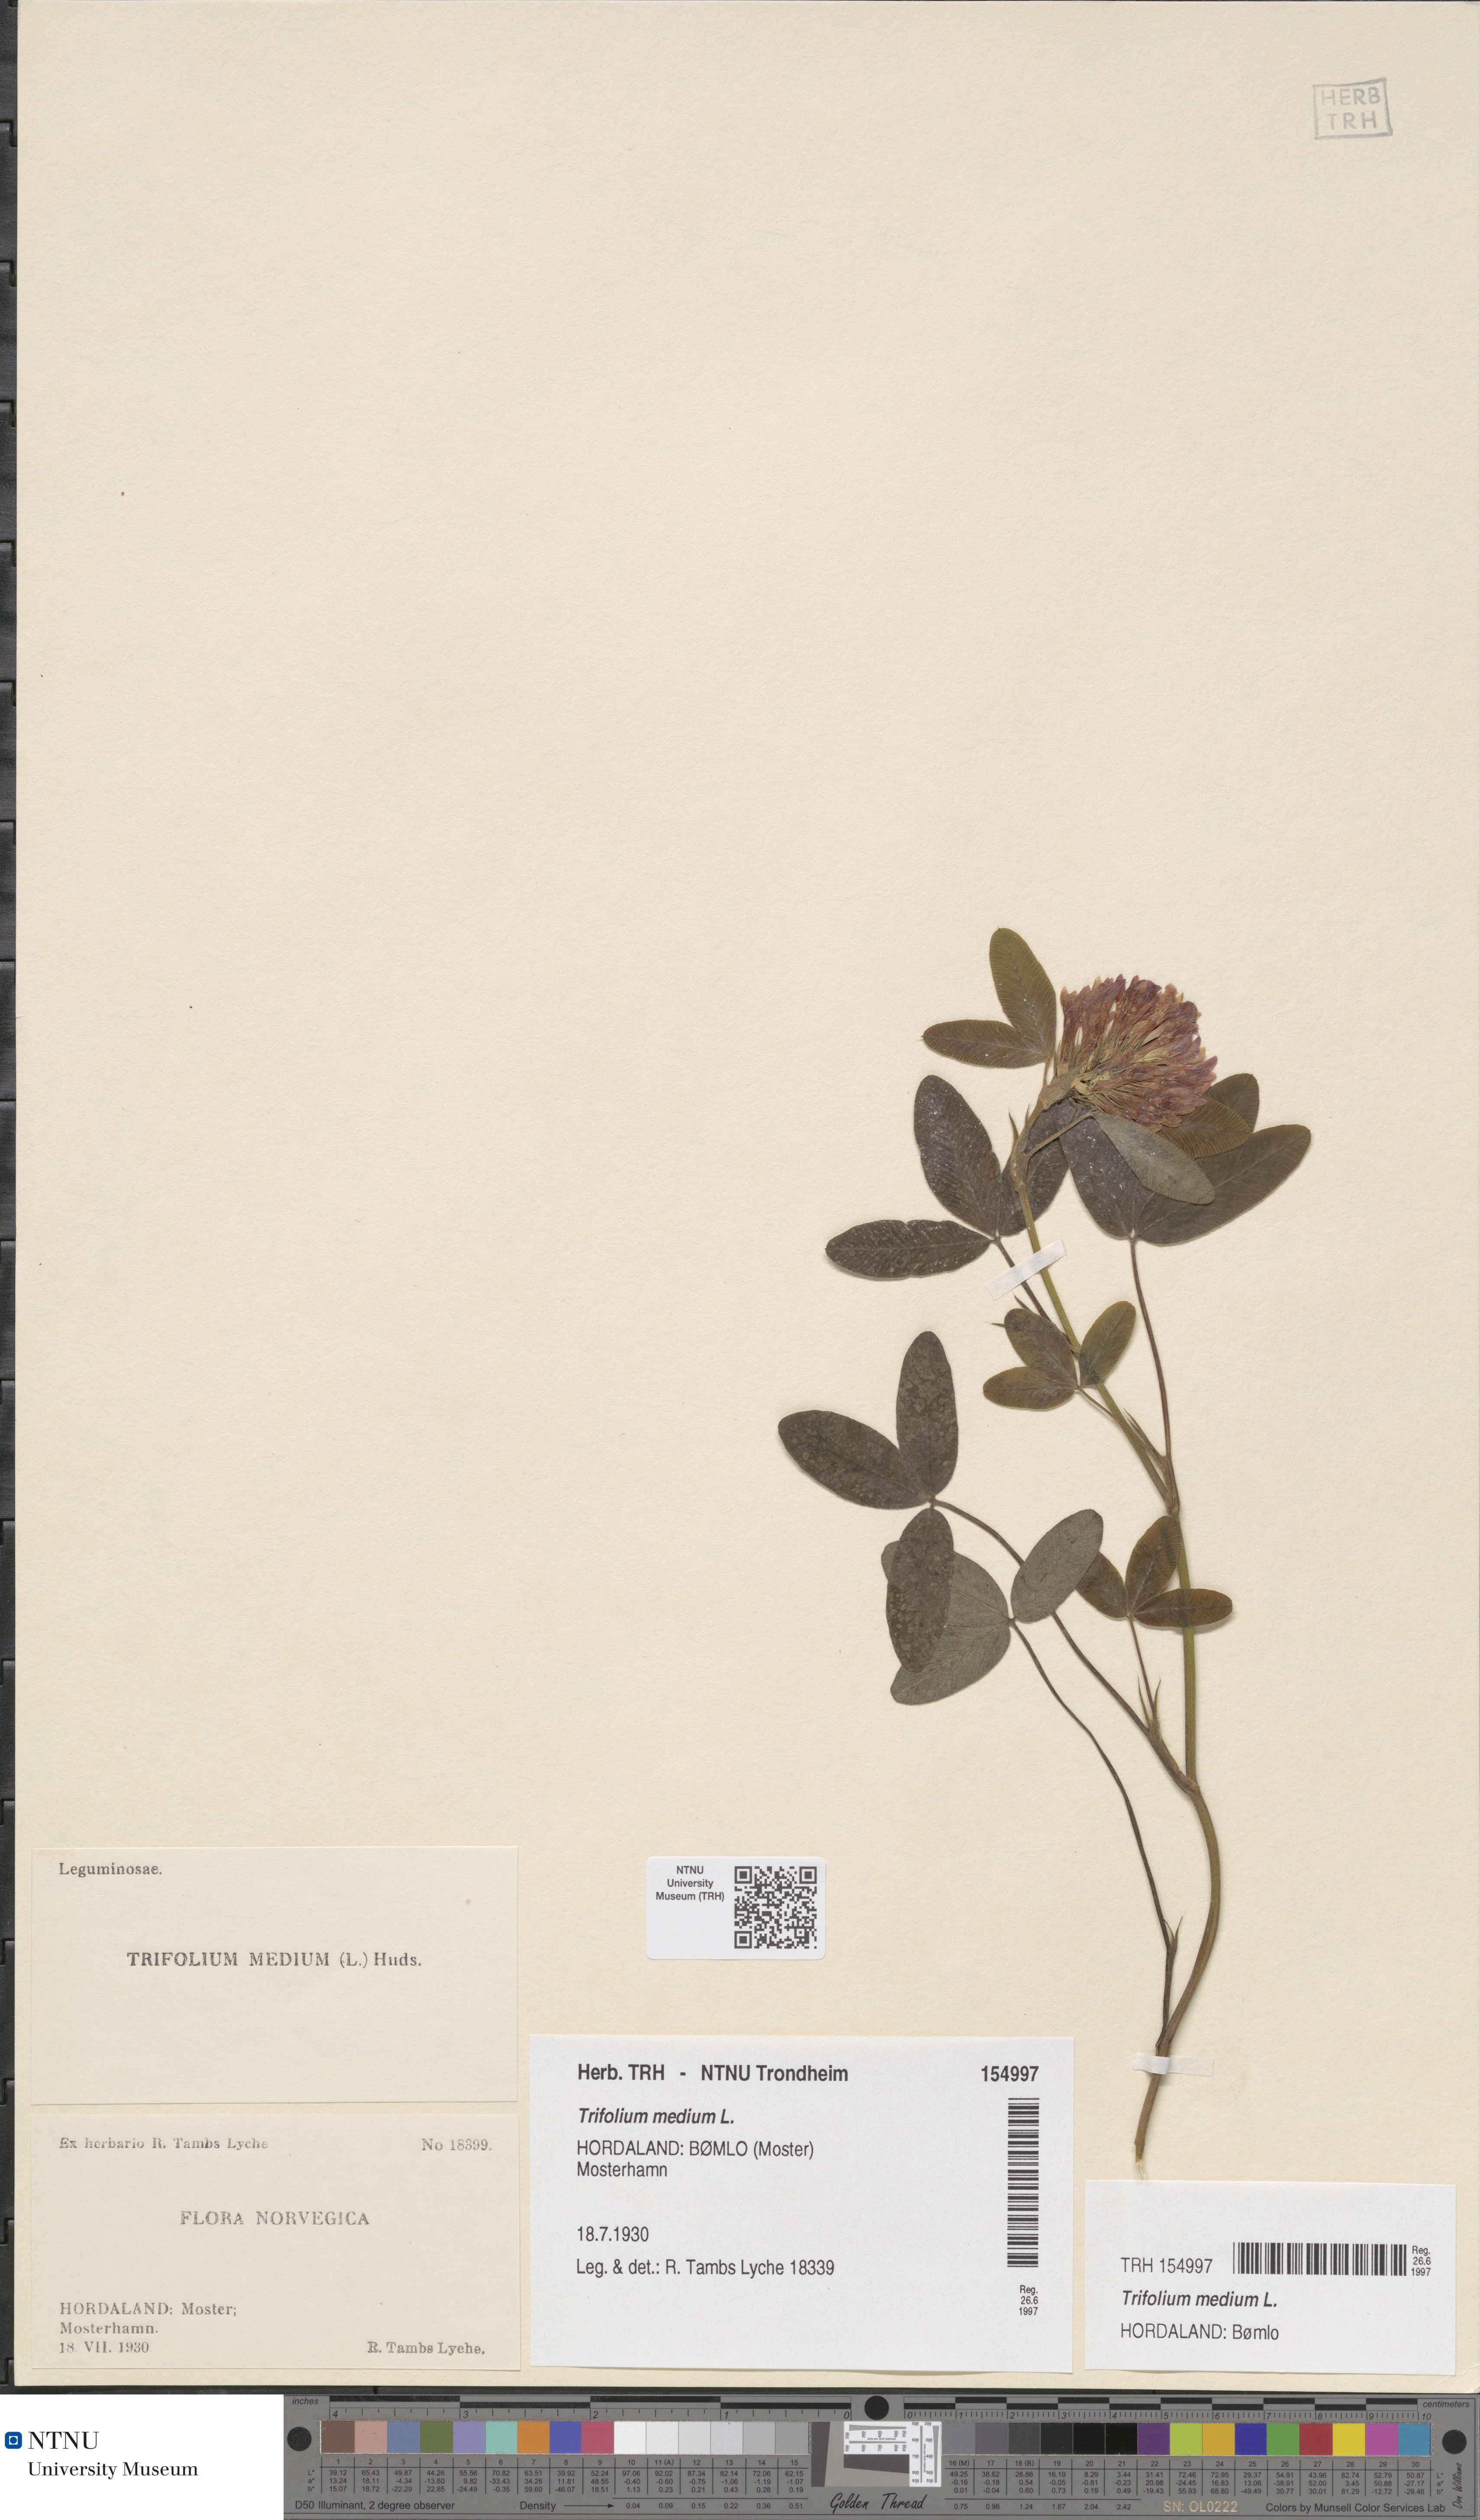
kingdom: Plantae
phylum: Tracheophyta
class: Magnoliopsida
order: Fabales
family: Fabaceae
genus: Trifolium
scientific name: Trifolium medium
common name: Zigzag clover
